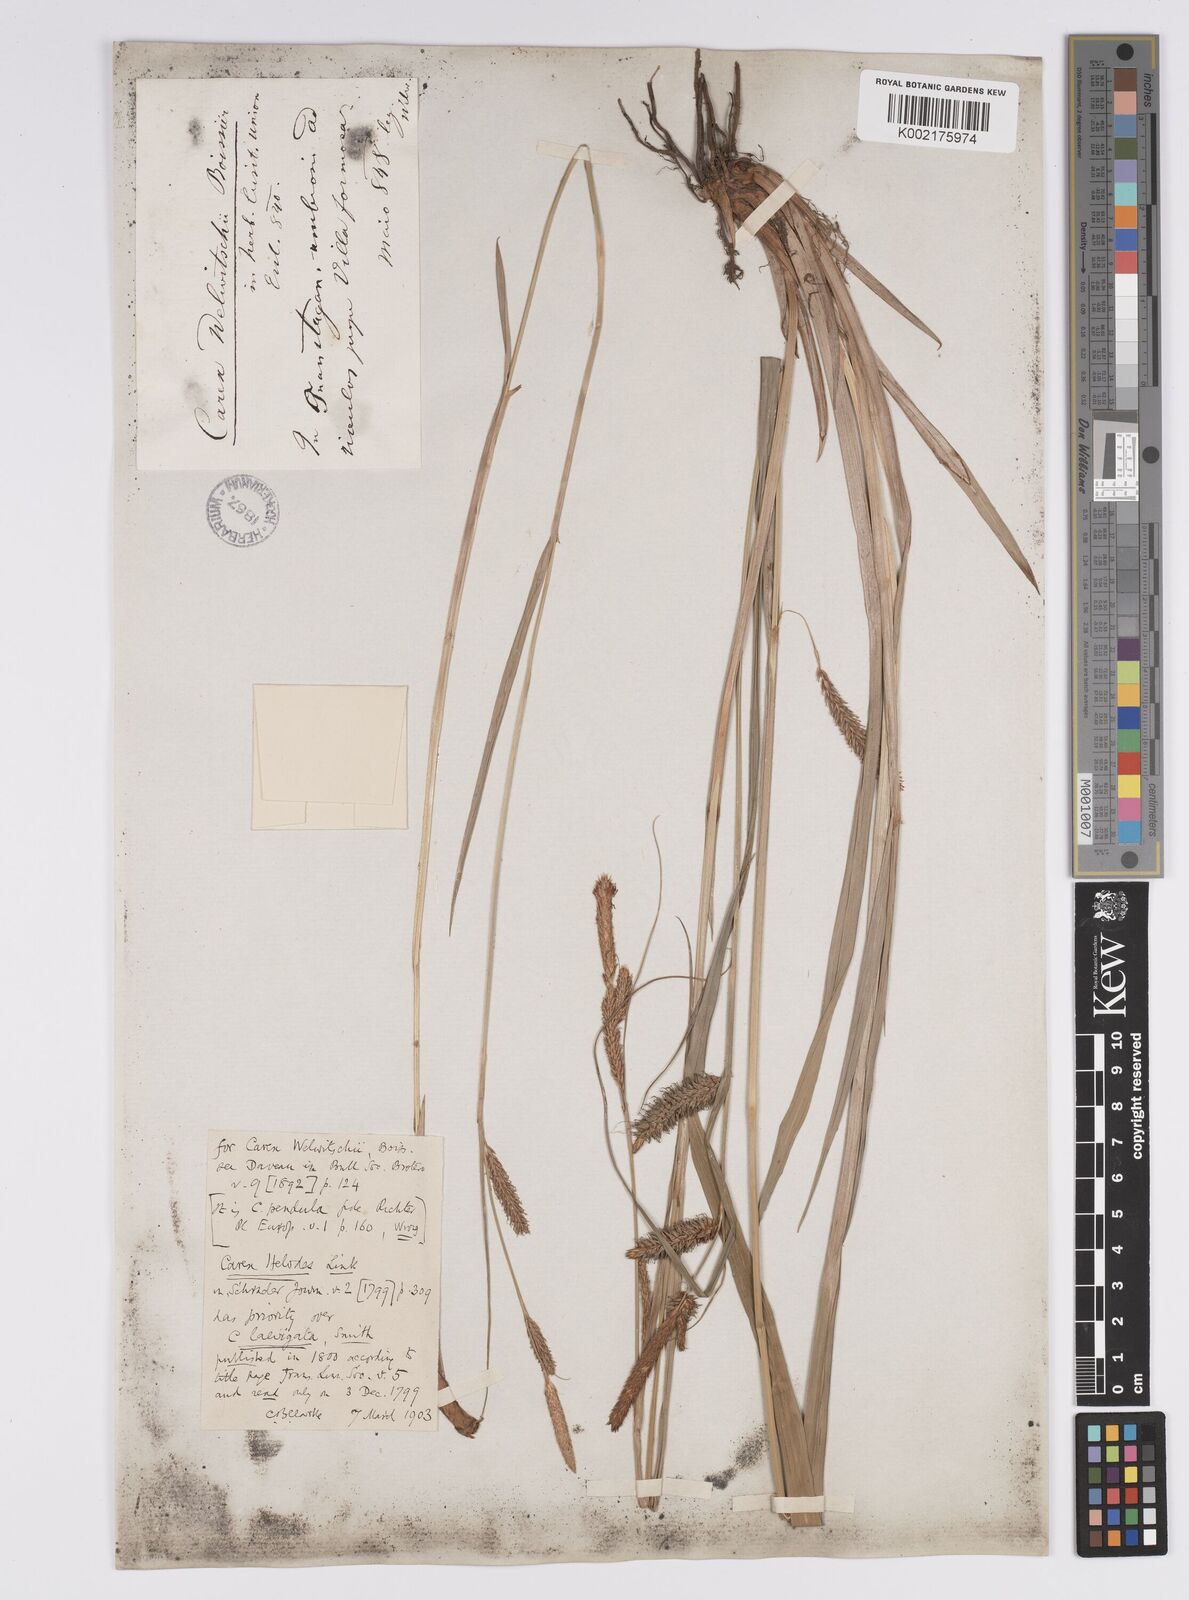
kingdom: Plantae
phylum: Tracheophyta
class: Liliopsida
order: Poales
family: Cyperaceae
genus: Carex
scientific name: Carex laevigata
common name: Smooth-stalked sedge
